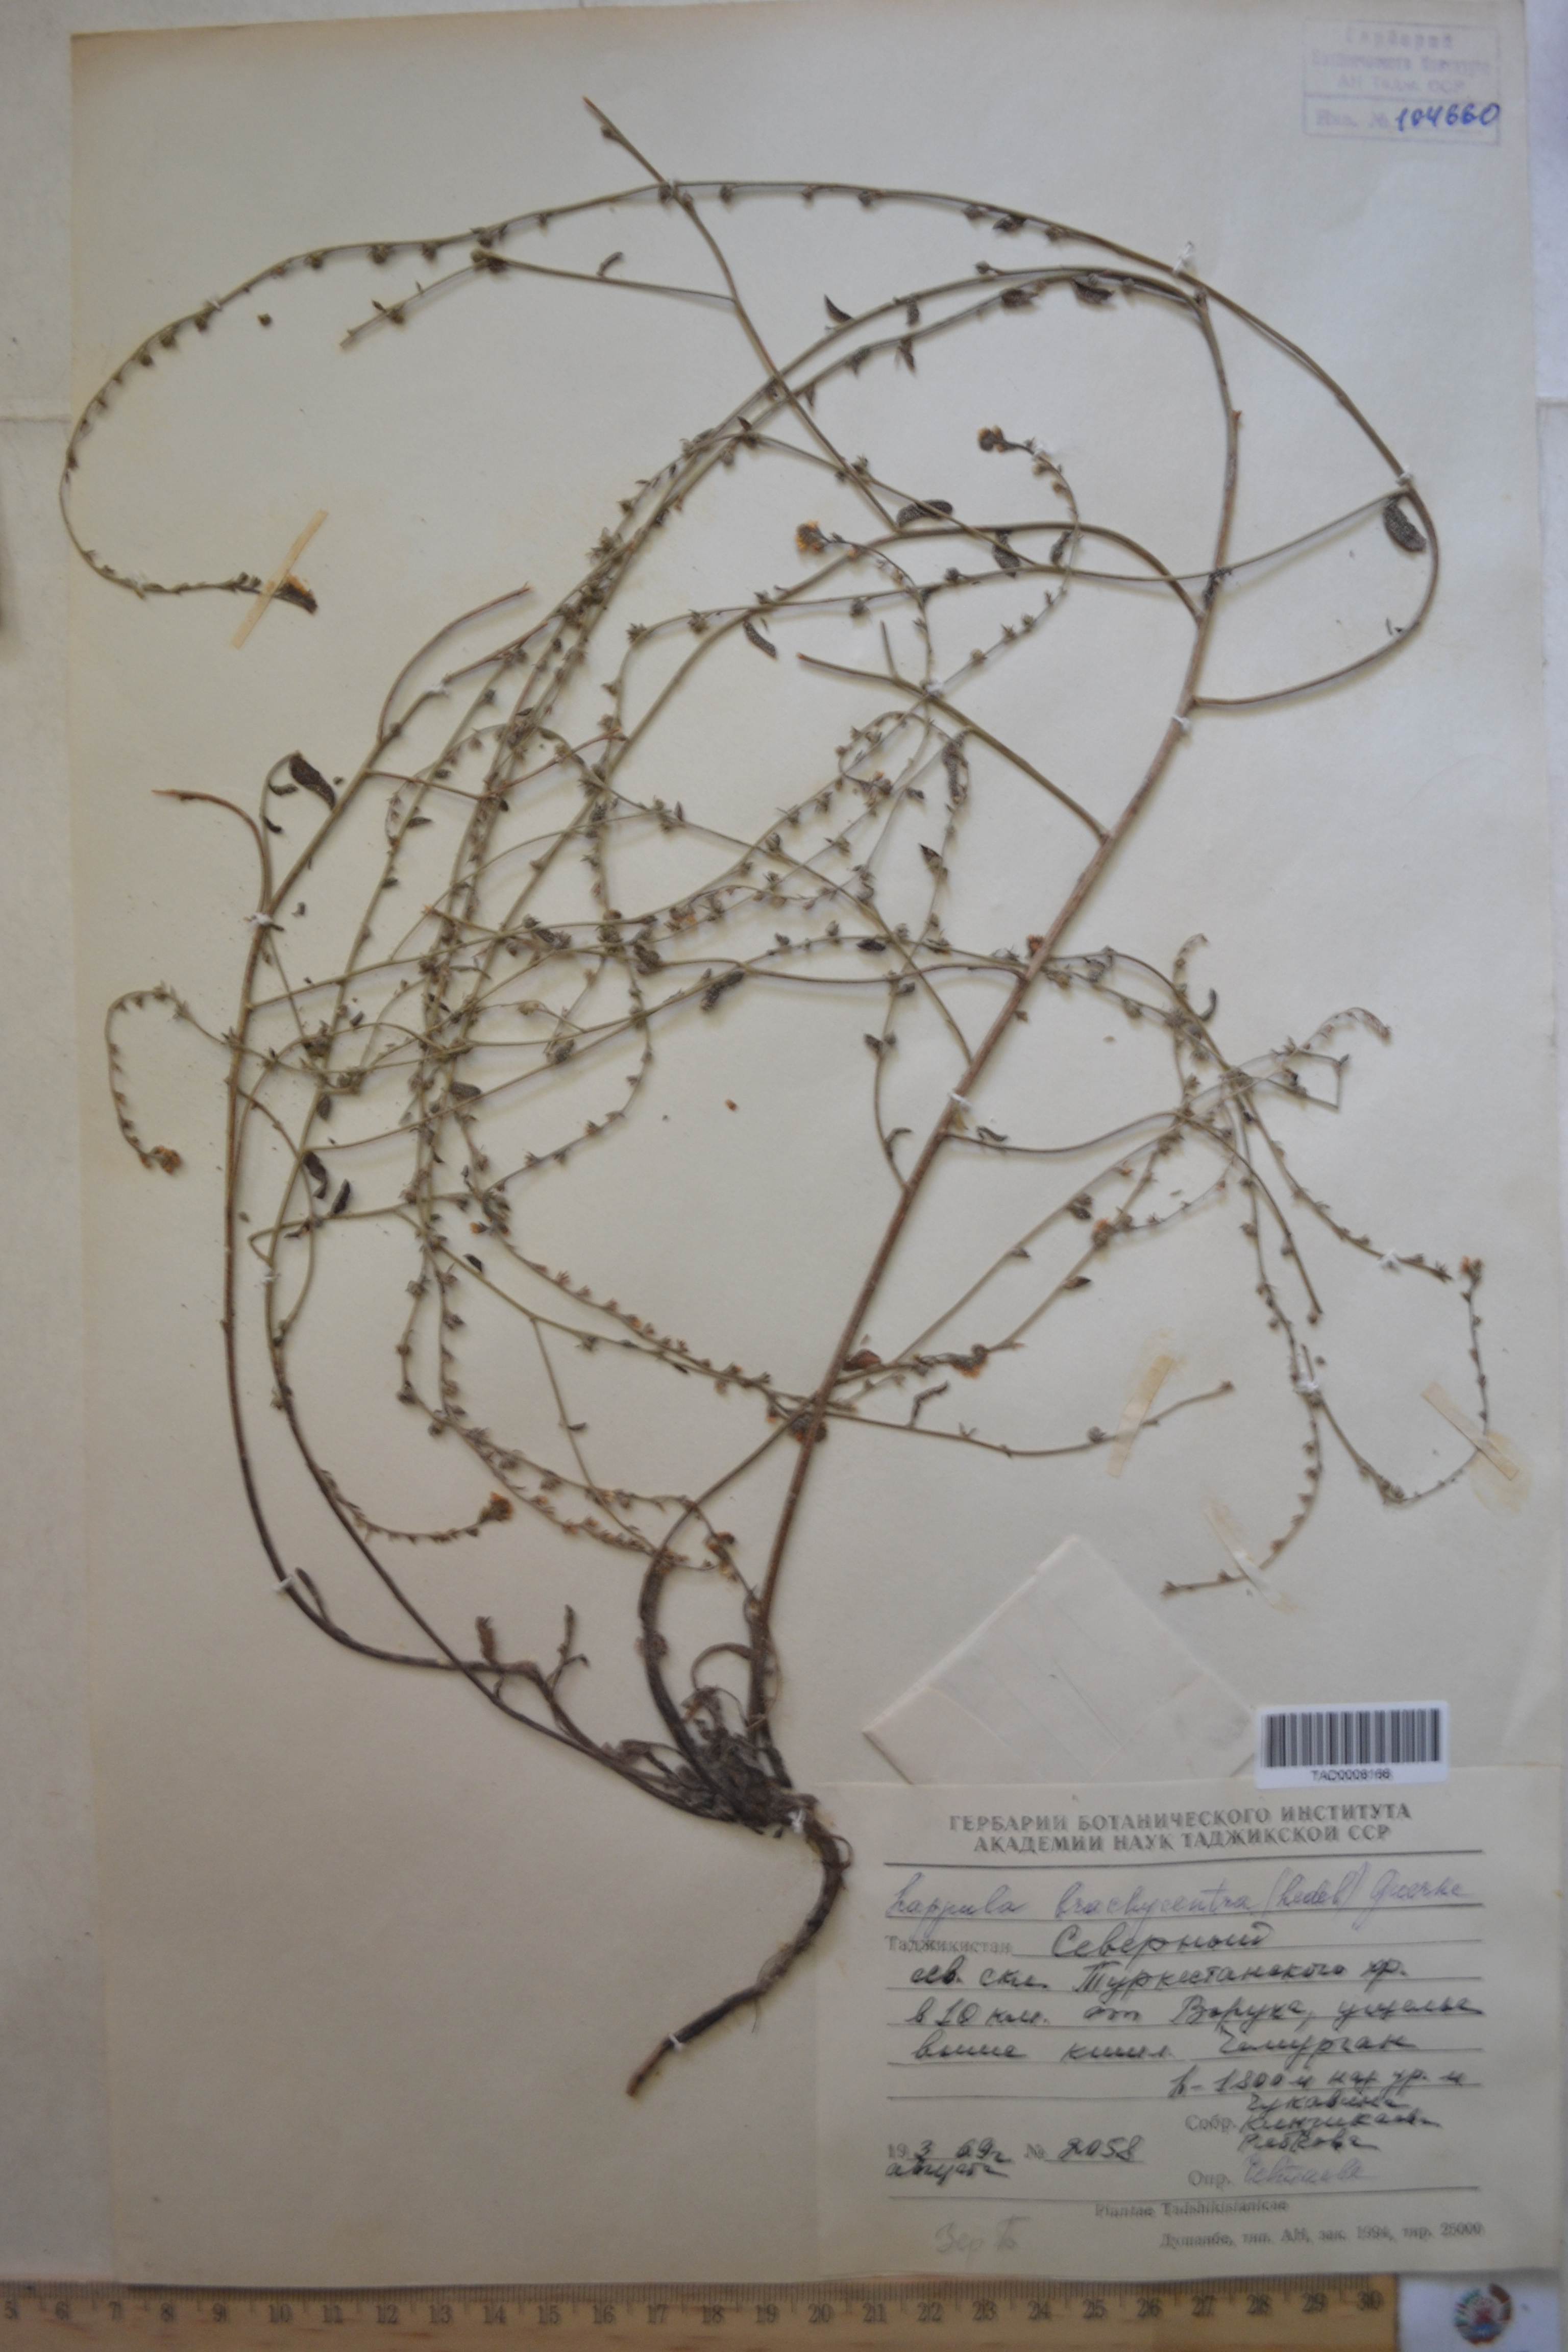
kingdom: Plantae
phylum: Tracheophyta
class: Magnoliopsida
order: Boraginales
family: Boraginaceae
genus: Lappula
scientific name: Lappula brachycentra
